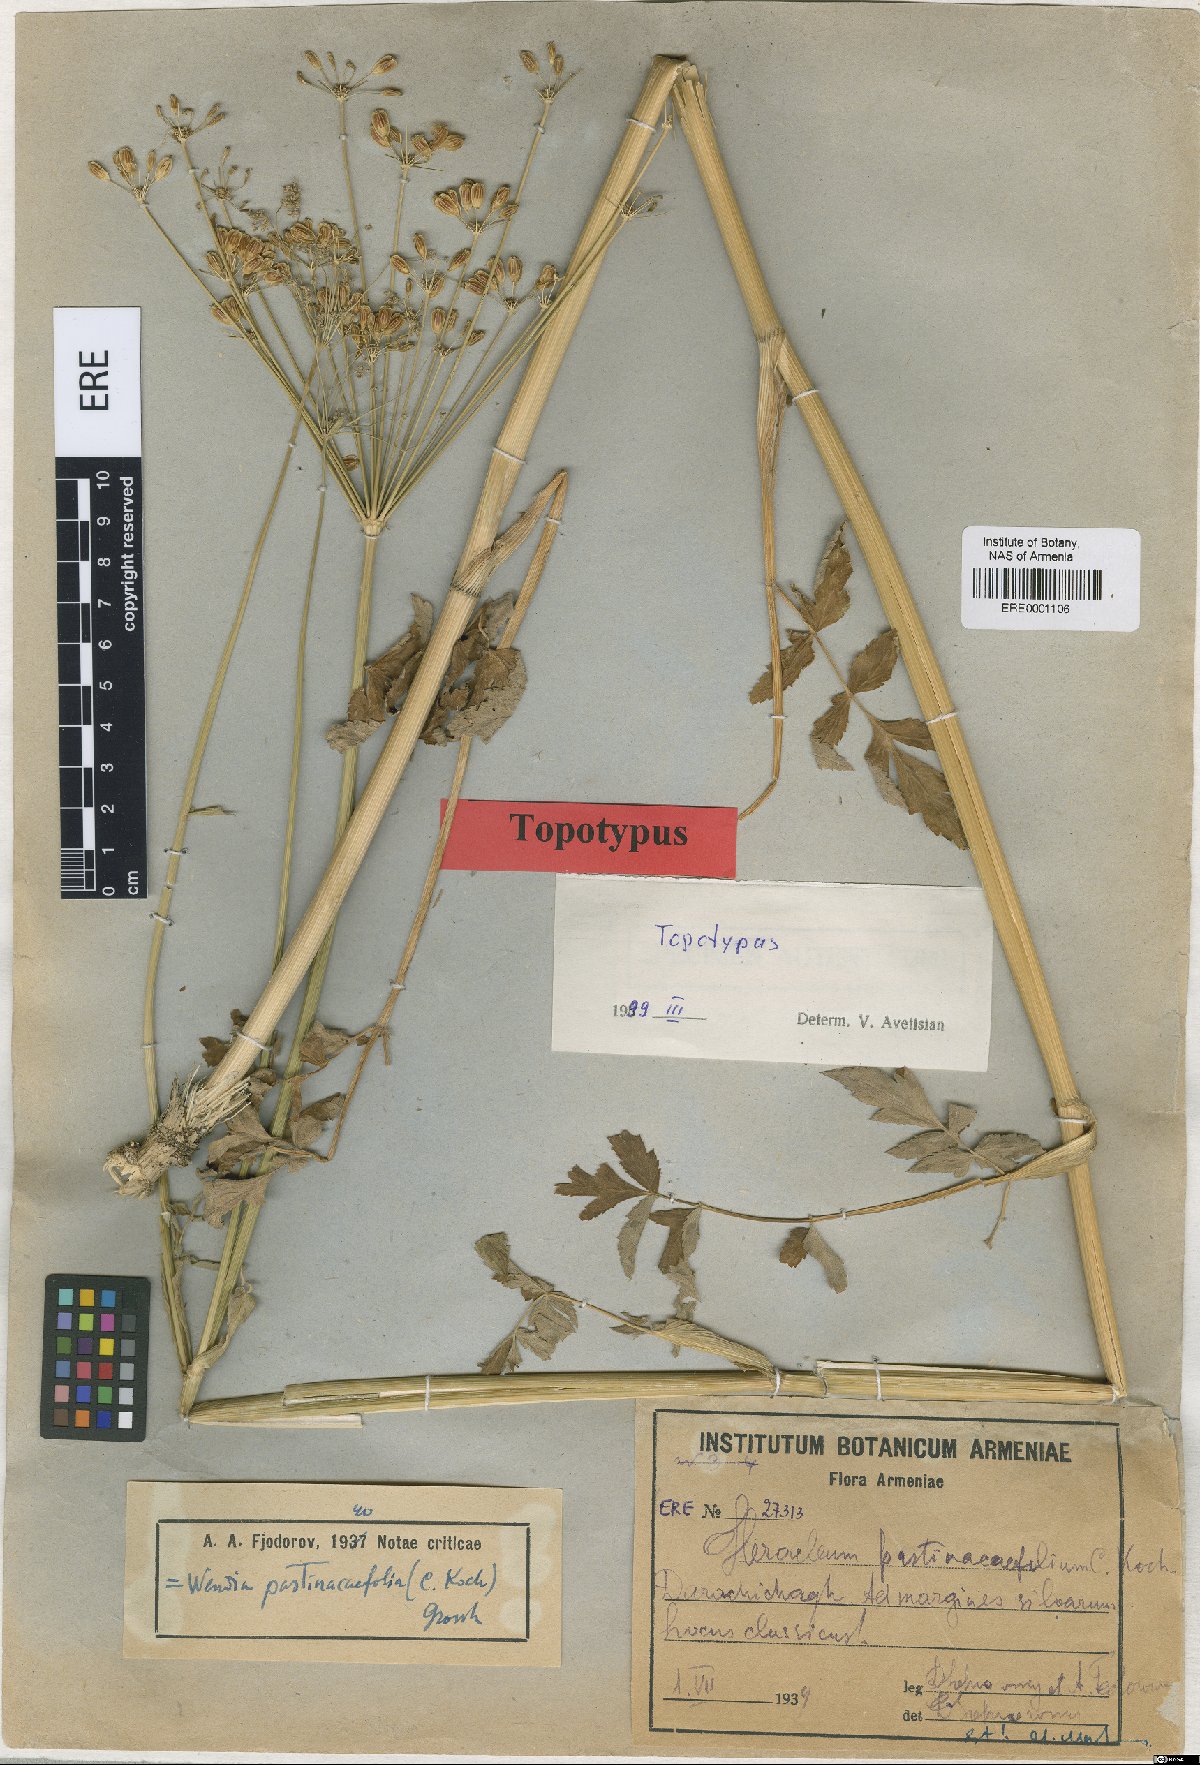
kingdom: Plantae
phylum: Tracheophyta
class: Magnoliopsida
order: Apiales
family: Apiaceae
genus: Heracleum
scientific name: Heracleum pastinacifolium
